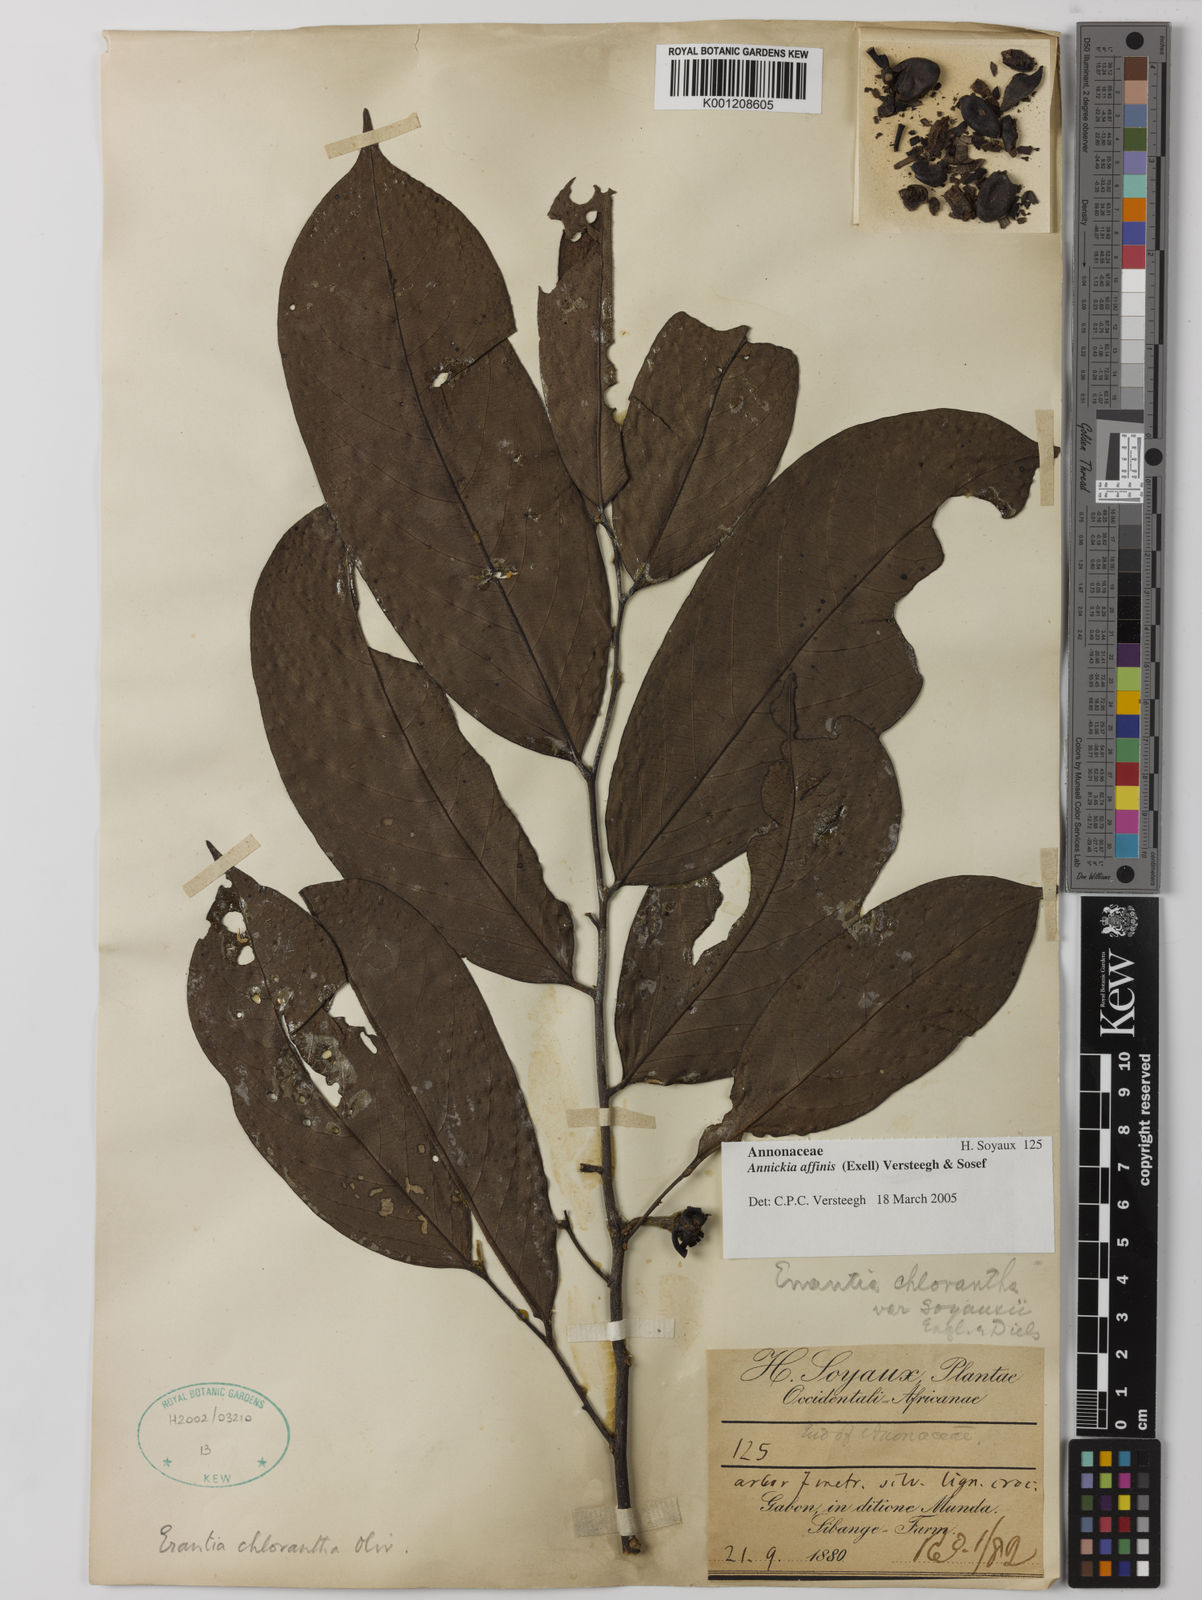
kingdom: Plantae
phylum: Tracheophyta
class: Magnoliopsida
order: Magnoliales
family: Annonaceae
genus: Annickia
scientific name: Annickia affinis
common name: African yellow wood
